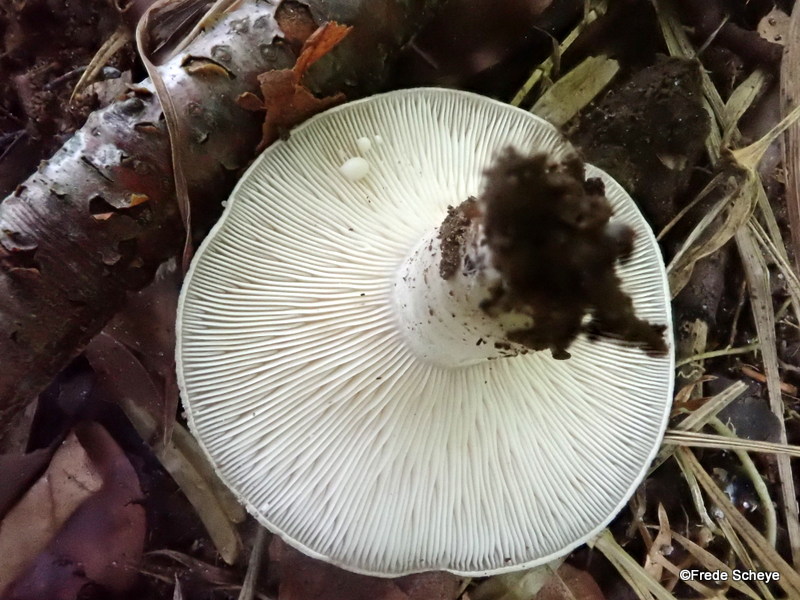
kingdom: Fungi
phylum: Basidiomycota
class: Agaricomycetes
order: Russulales
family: Russulaceae
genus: Lactarius
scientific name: Lactarius blennius
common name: dråbeplettet mælkehat
